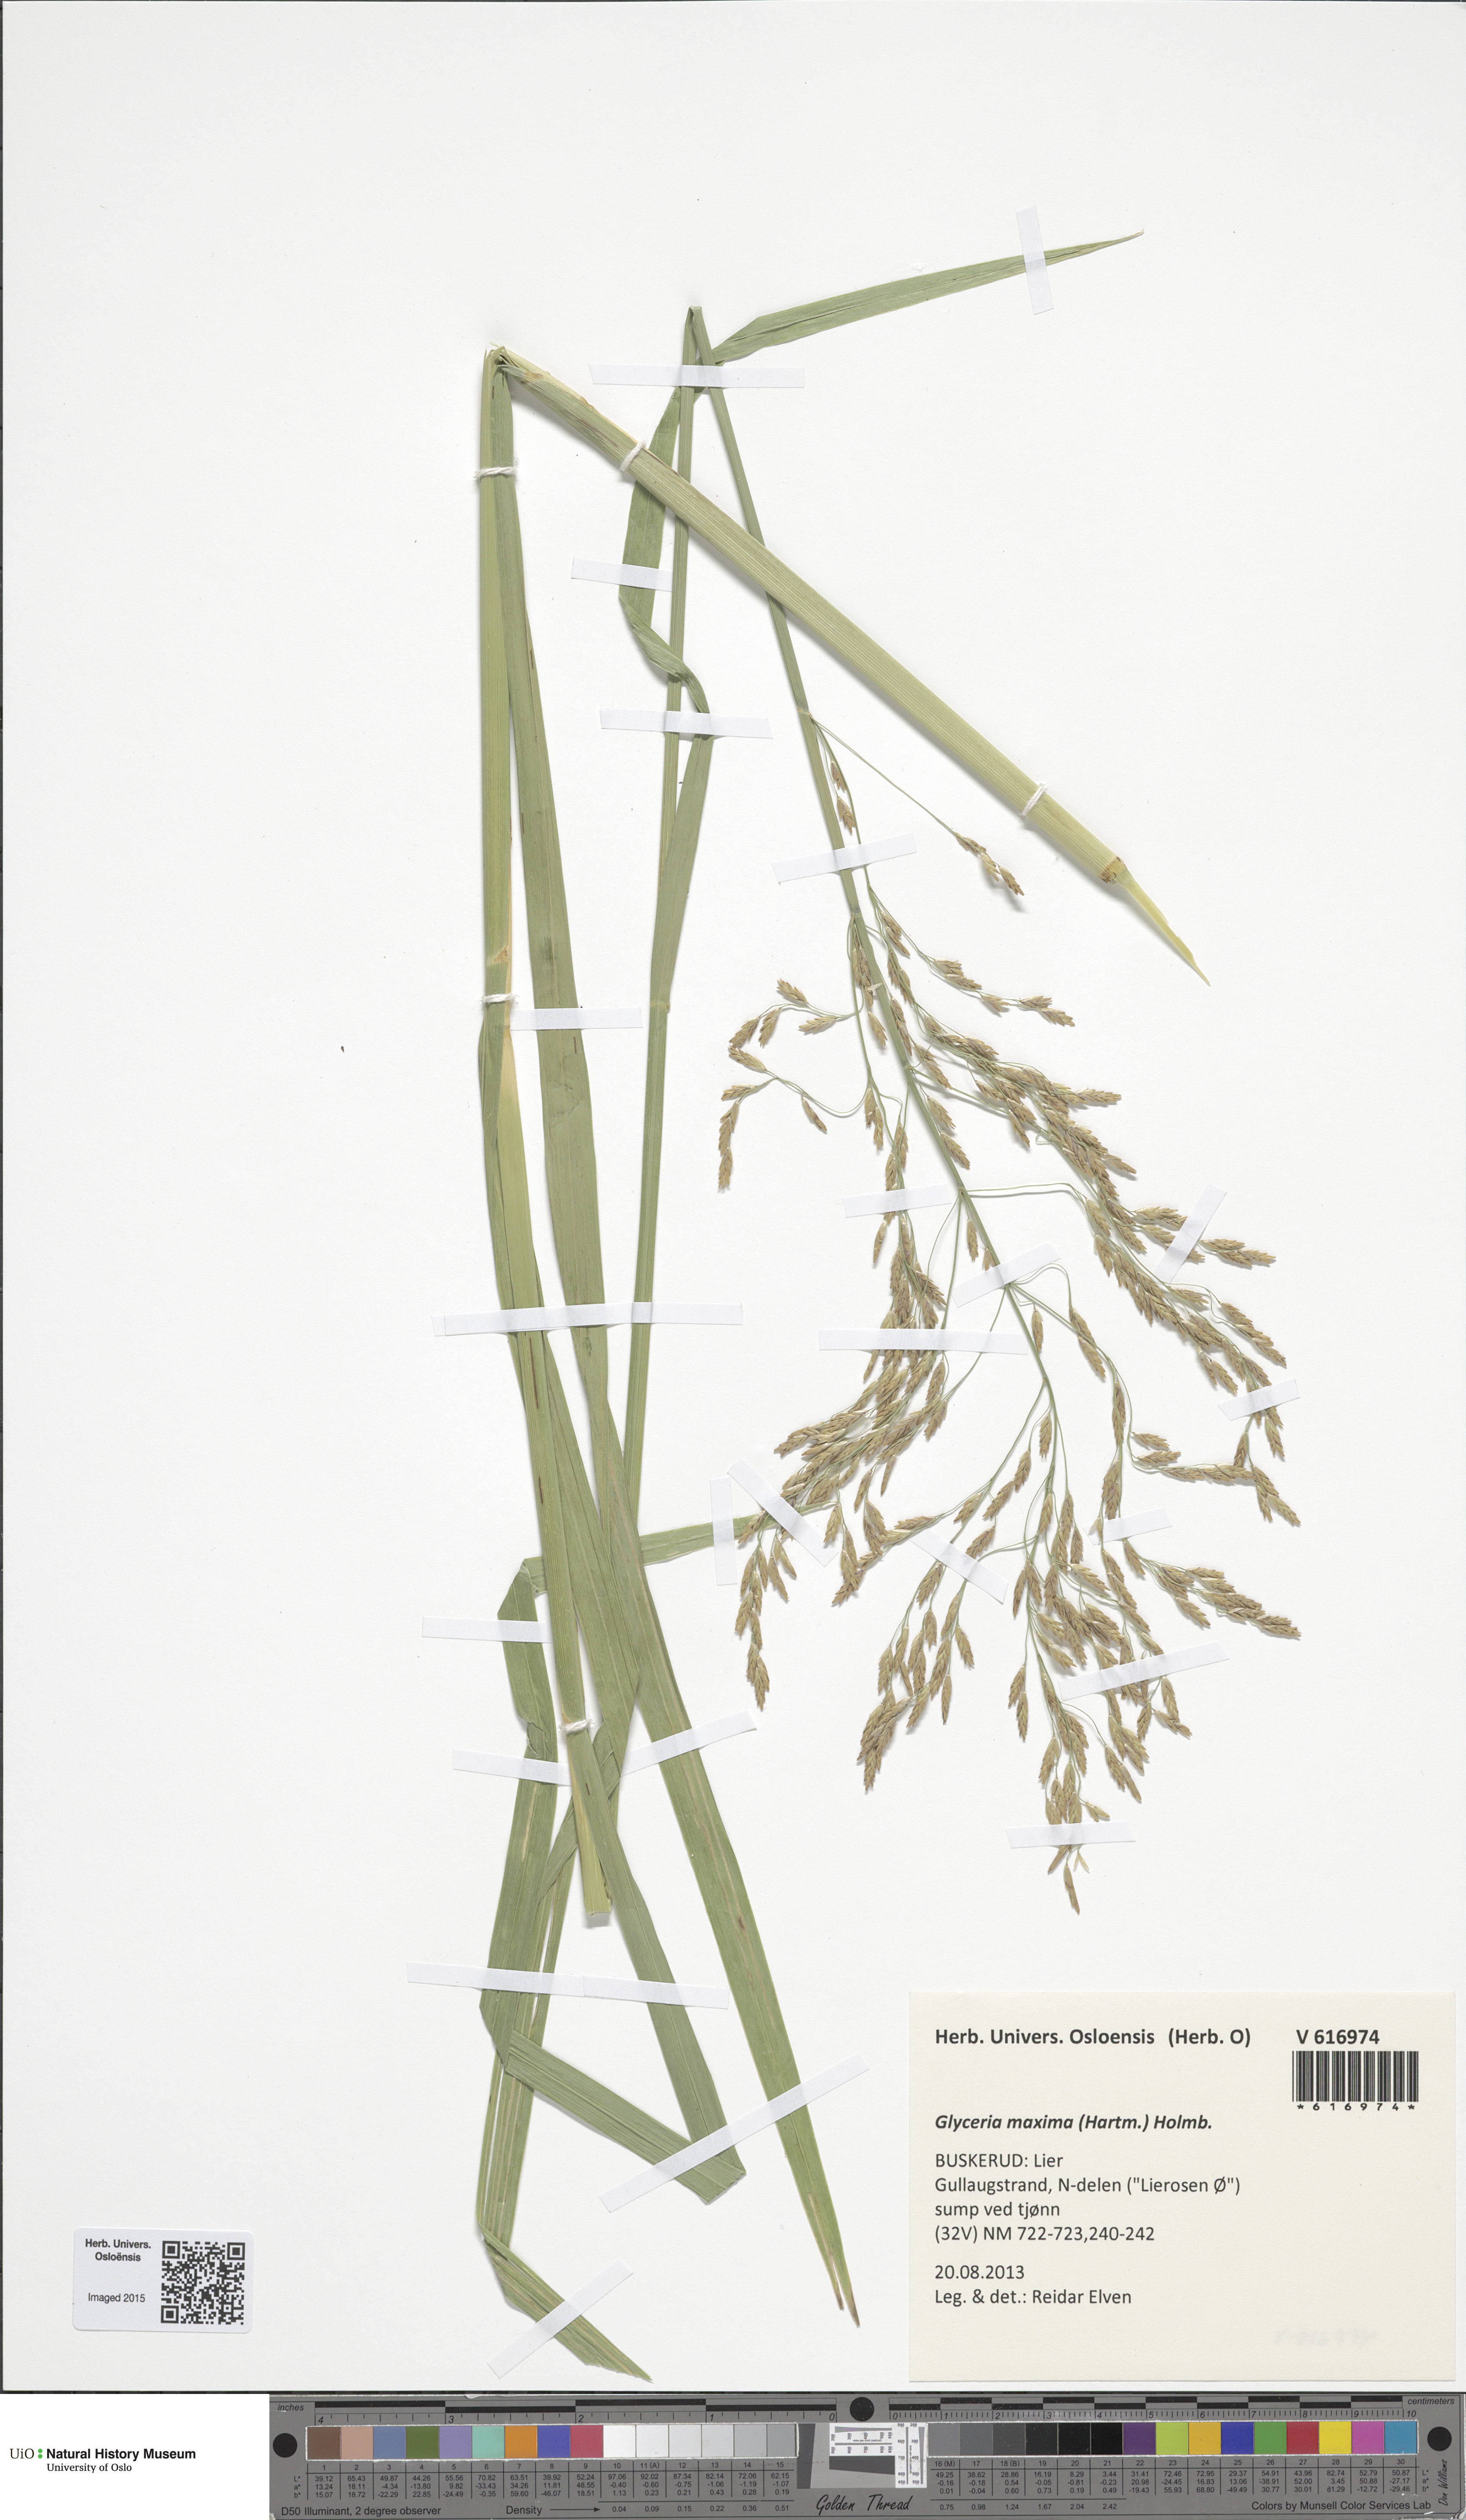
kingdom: Plantae
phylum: Tracheophyta
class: Liliopsida
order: Poales
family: Poaceae
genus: Glyceria
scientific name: Glyceria maxima
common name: Reed mannagrass
